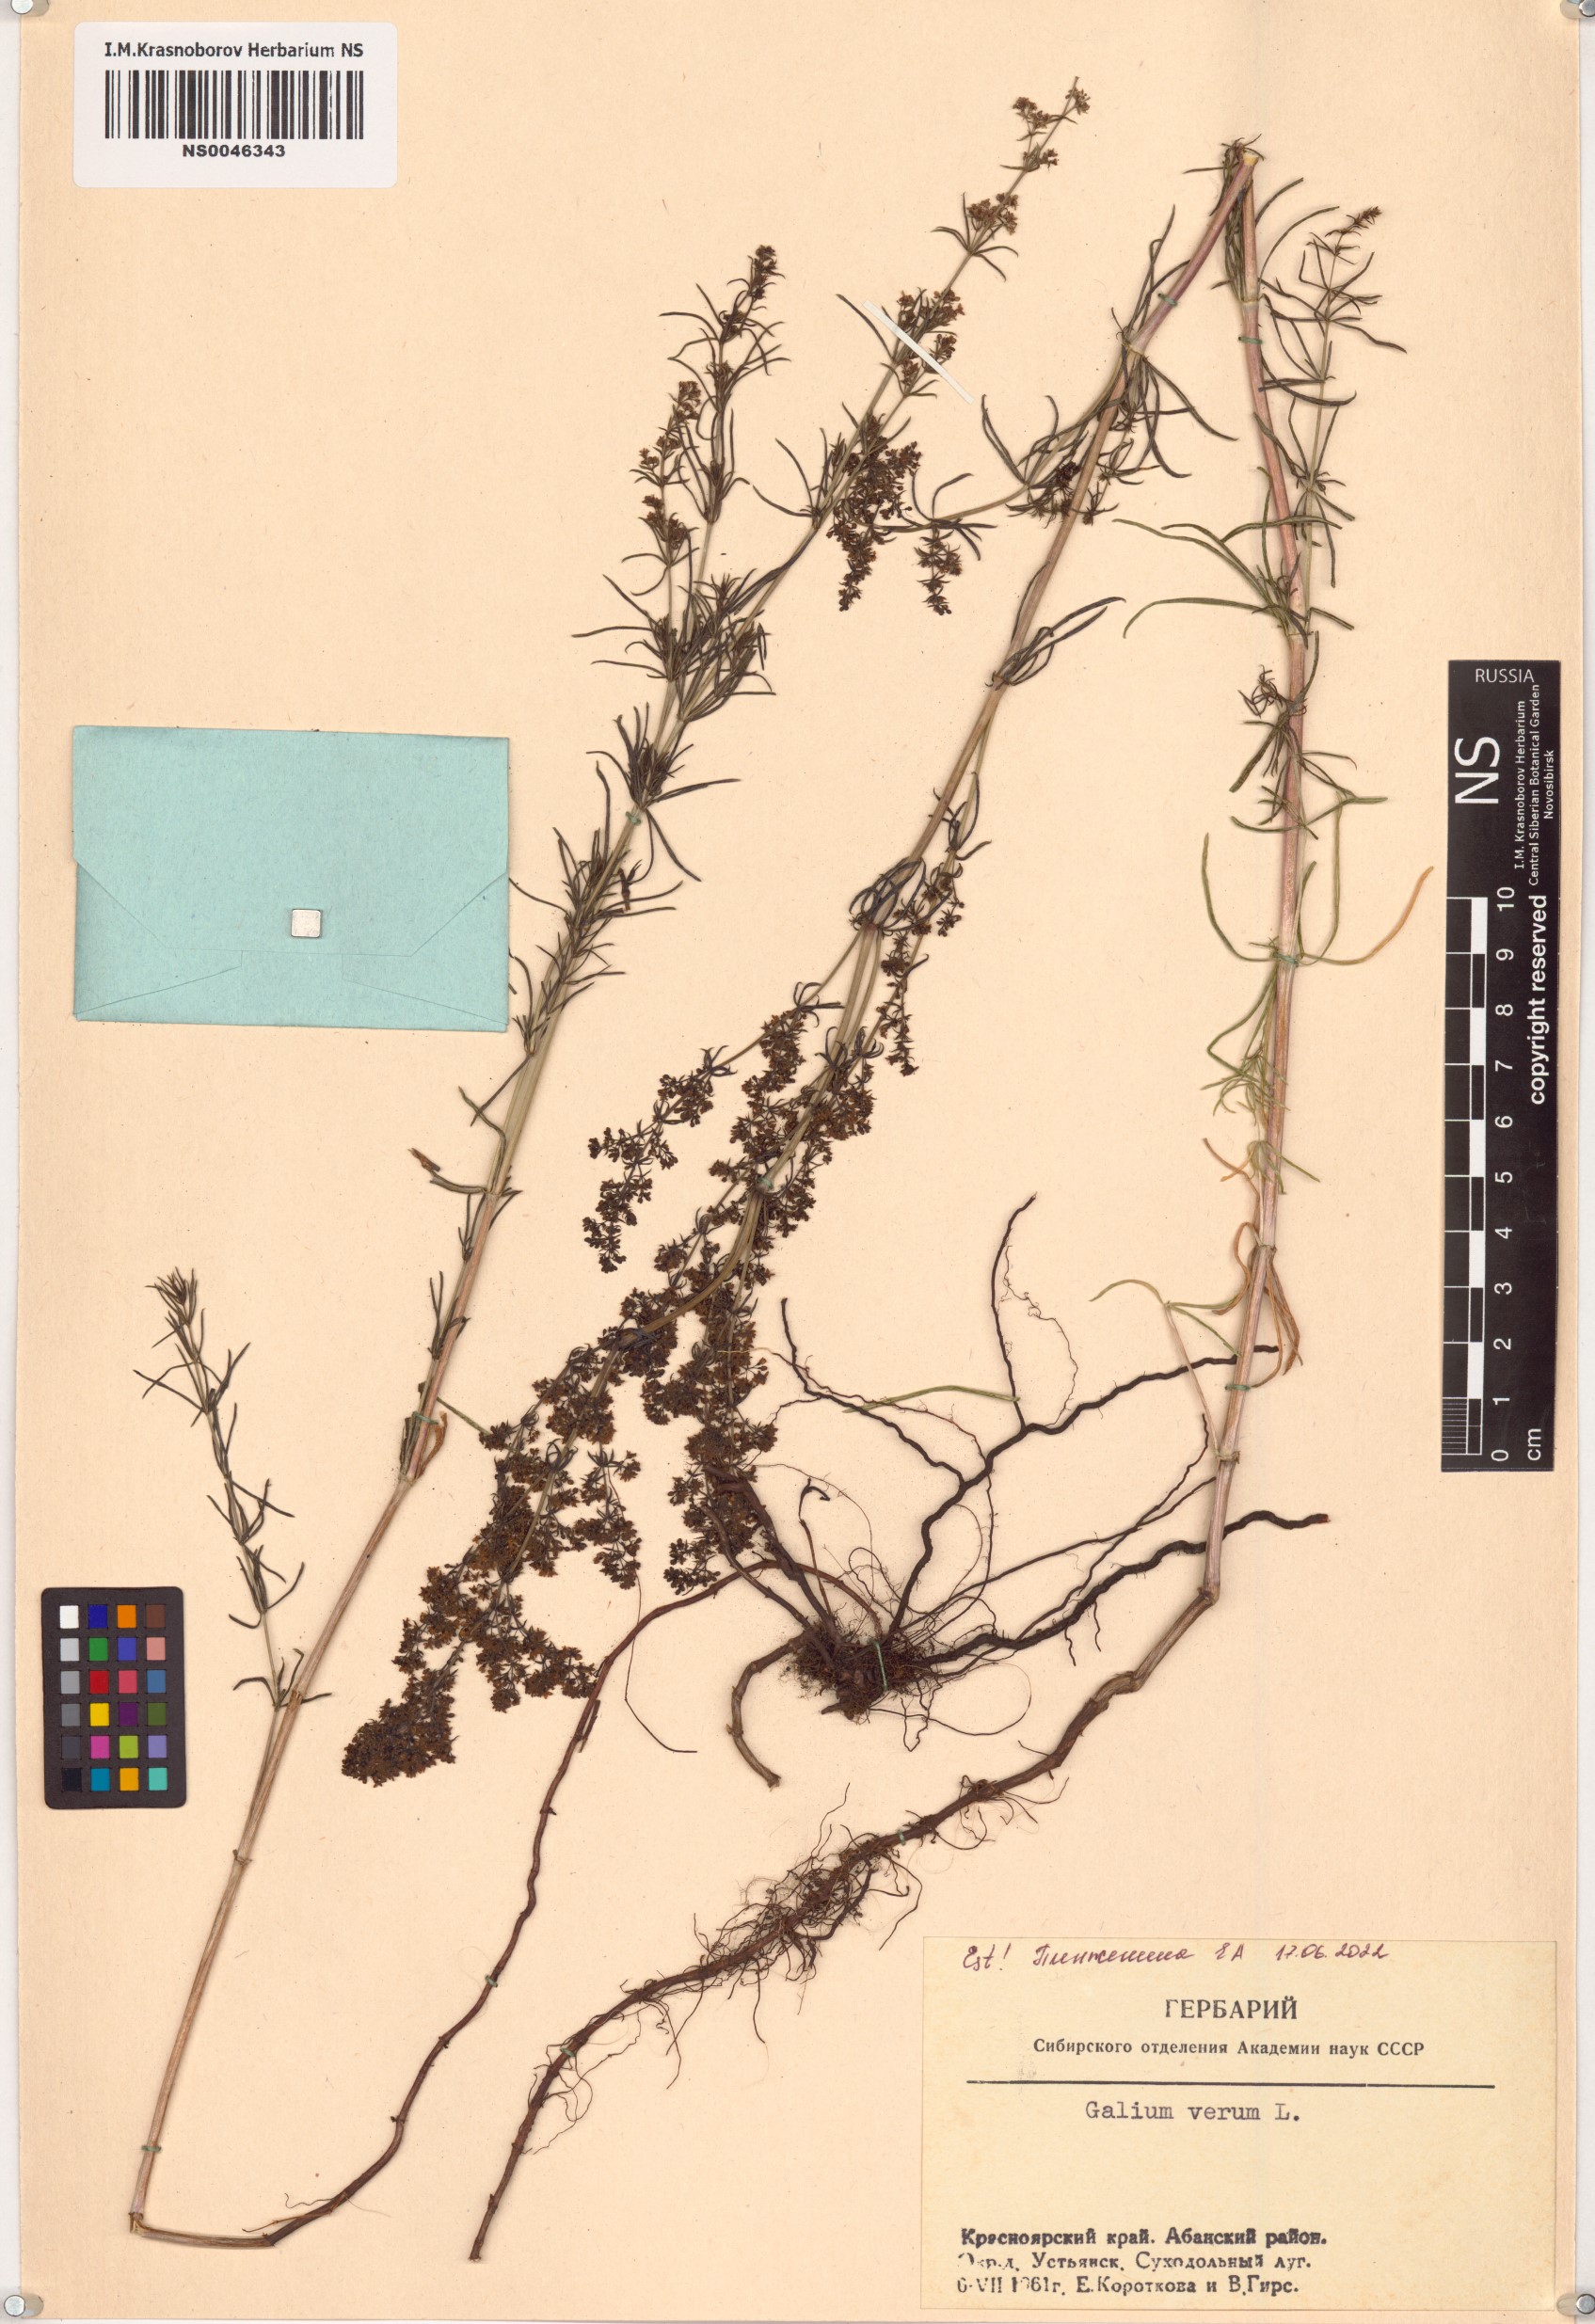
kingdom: Plantae
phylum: Tracheophyta
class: Magnoliopsida
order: Gentianales
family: Rubiaceae
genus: Galium
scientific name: Galium verum
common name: Lady's bedstraw
